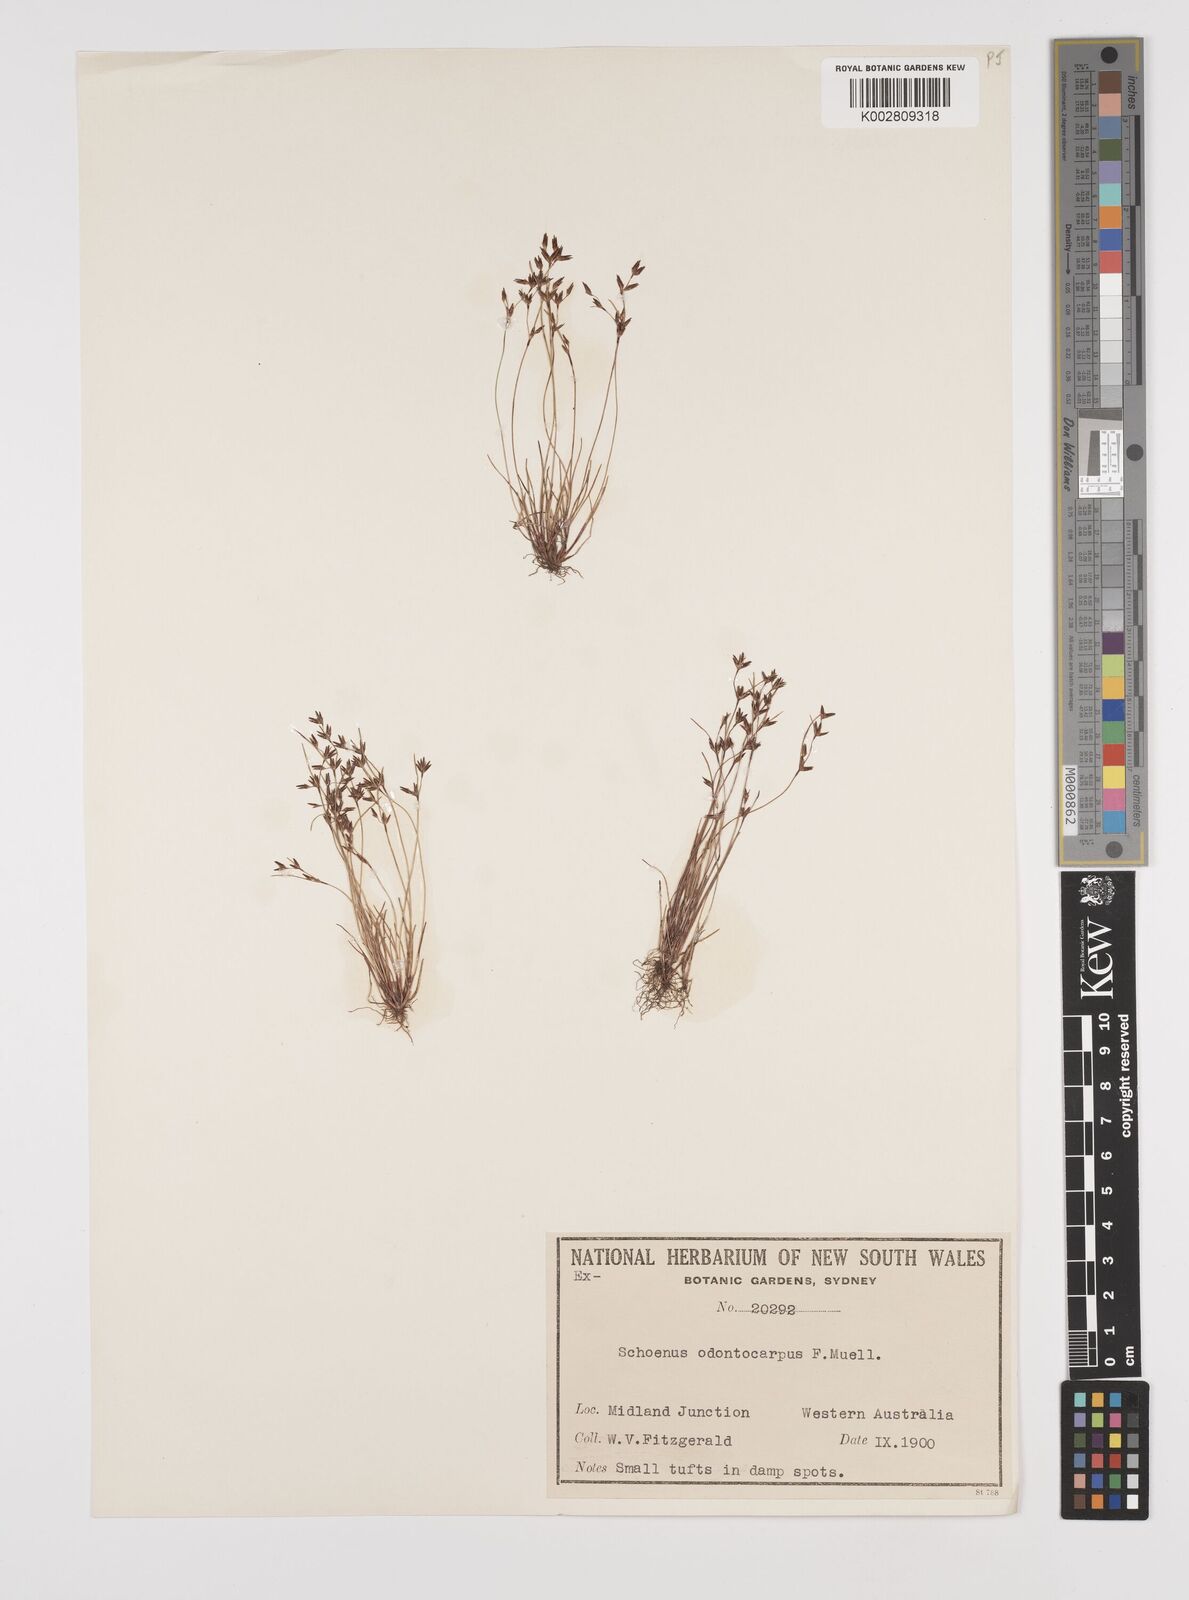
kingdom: Plantae
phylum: Tracheophyta
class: Liliopsida
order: Poales
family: Cyperaceae
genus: Schoenus
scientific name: Schoenus odontocarpus
